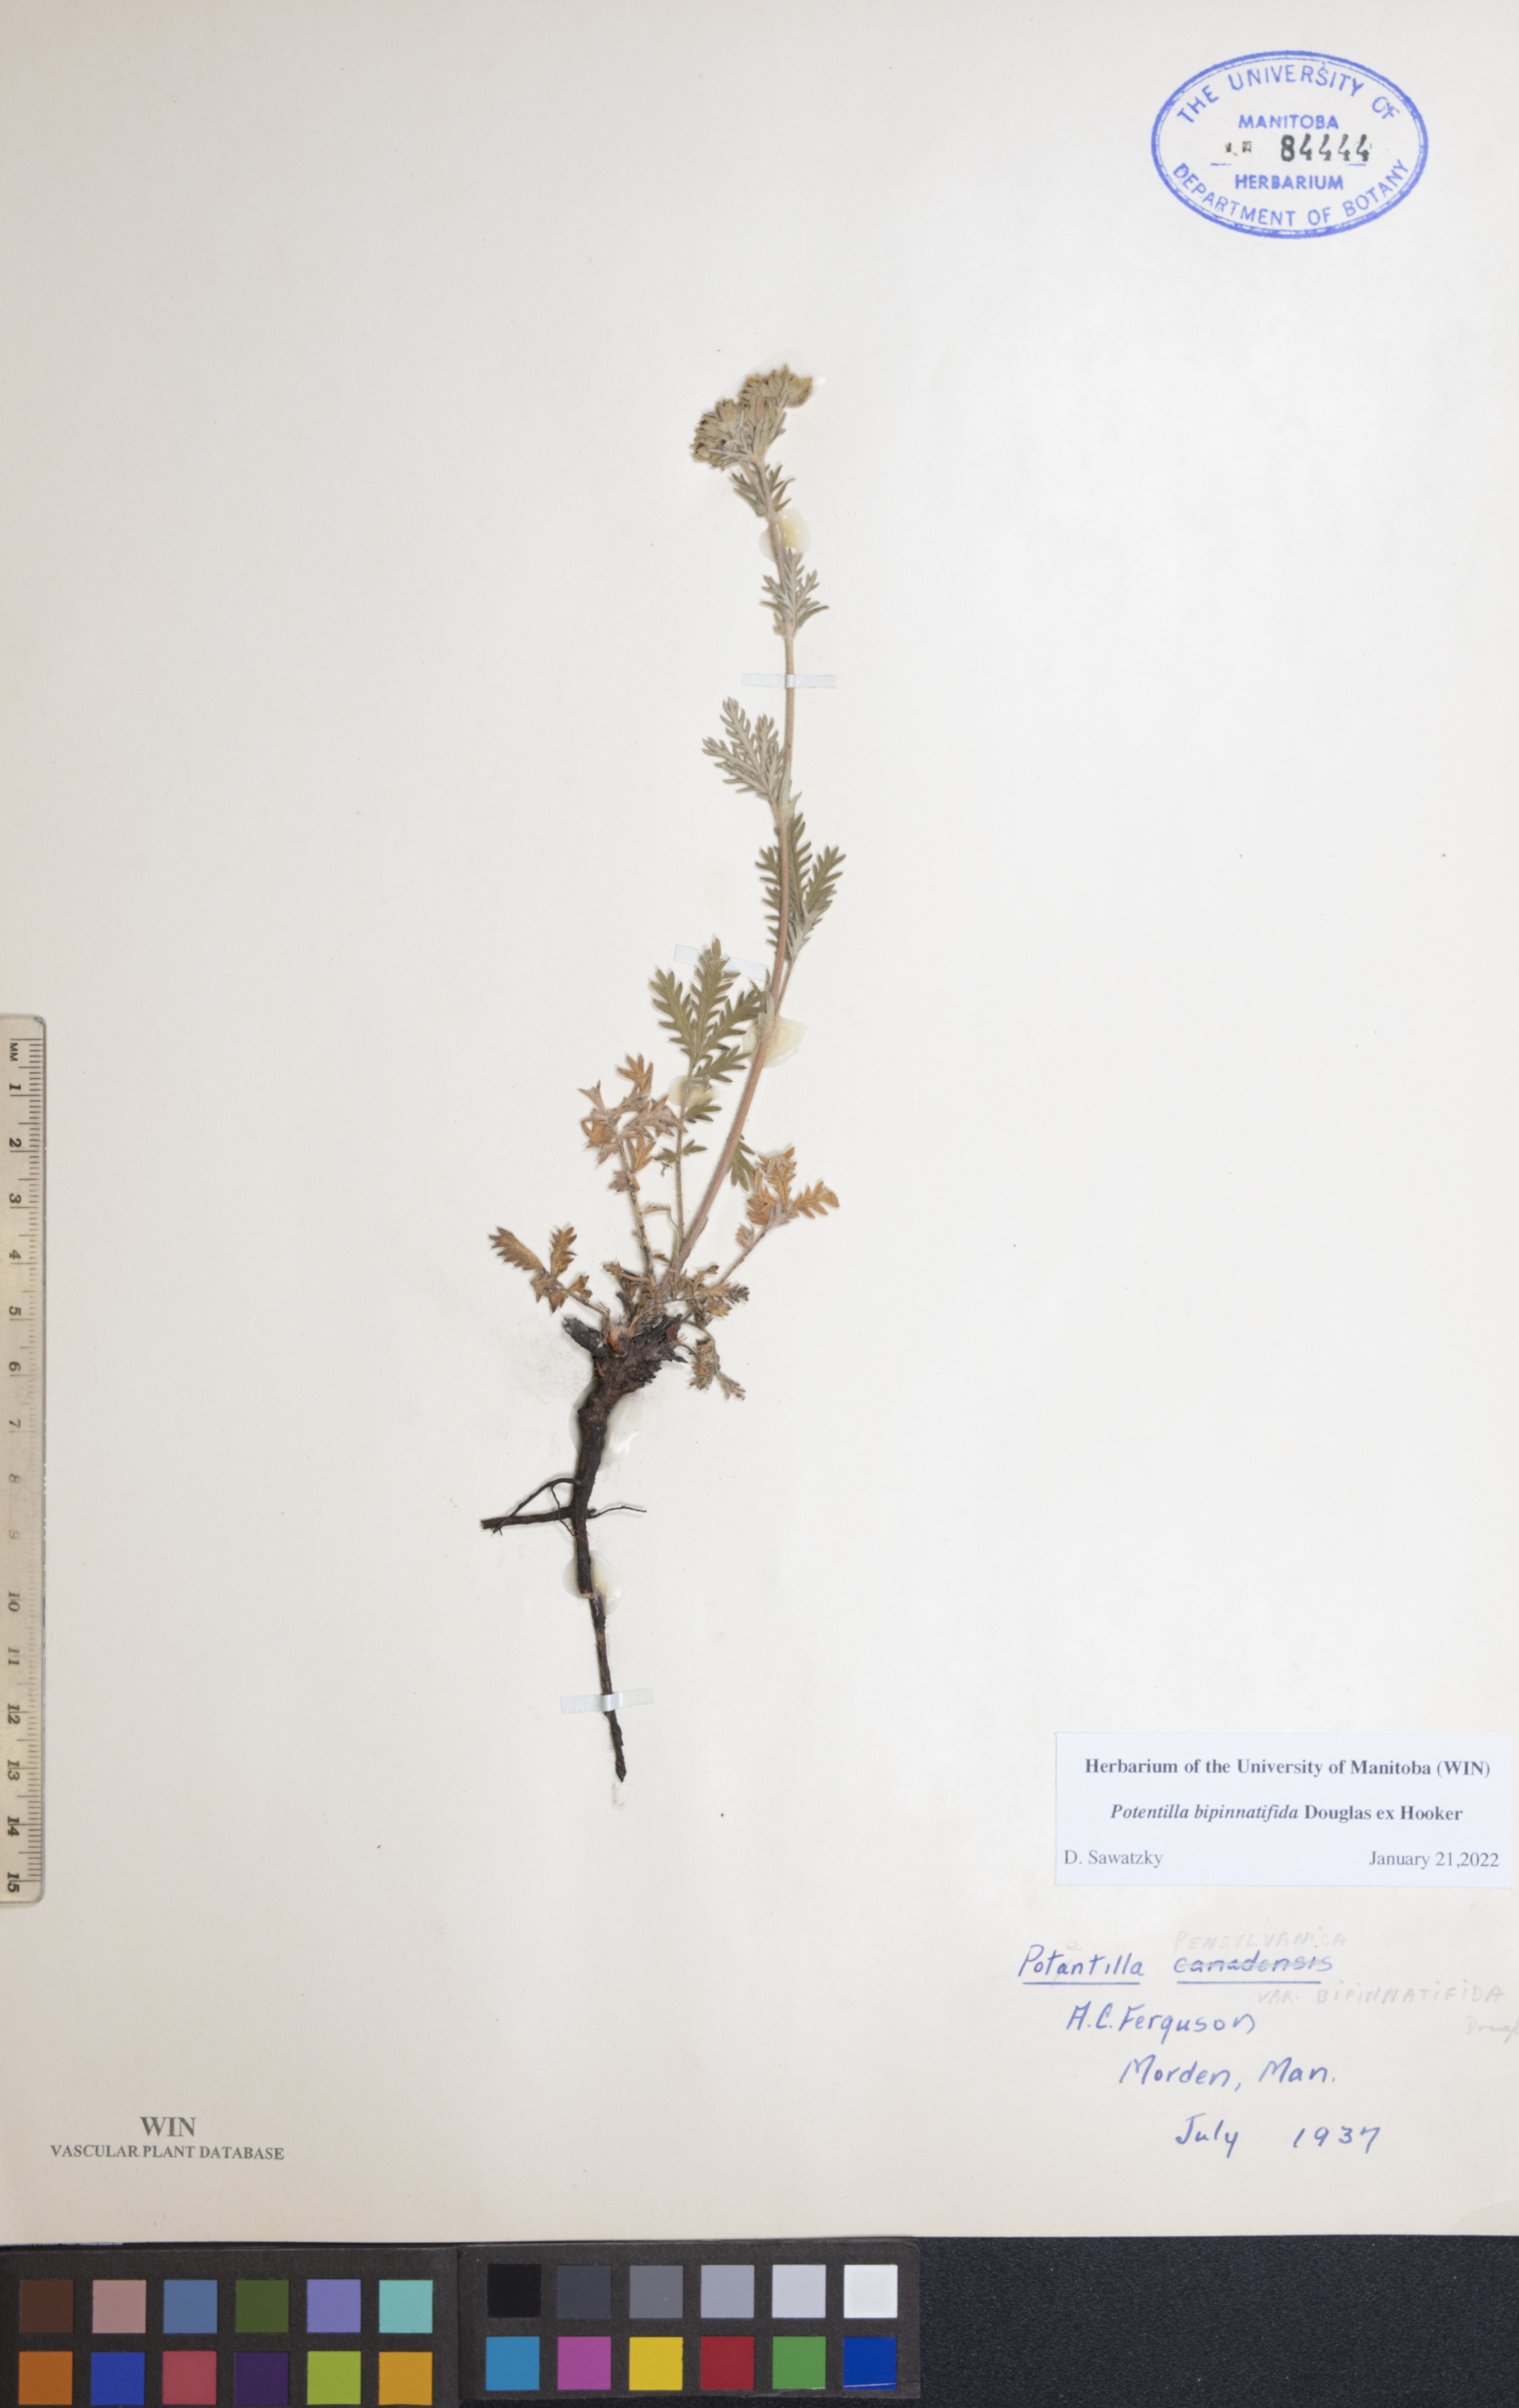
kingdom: Plantae
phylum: Tracheophyta
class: Magnoliopsida
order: Rosales
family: Rosaceae
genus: Potentilla
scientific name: Potentilla bipinnatifida
